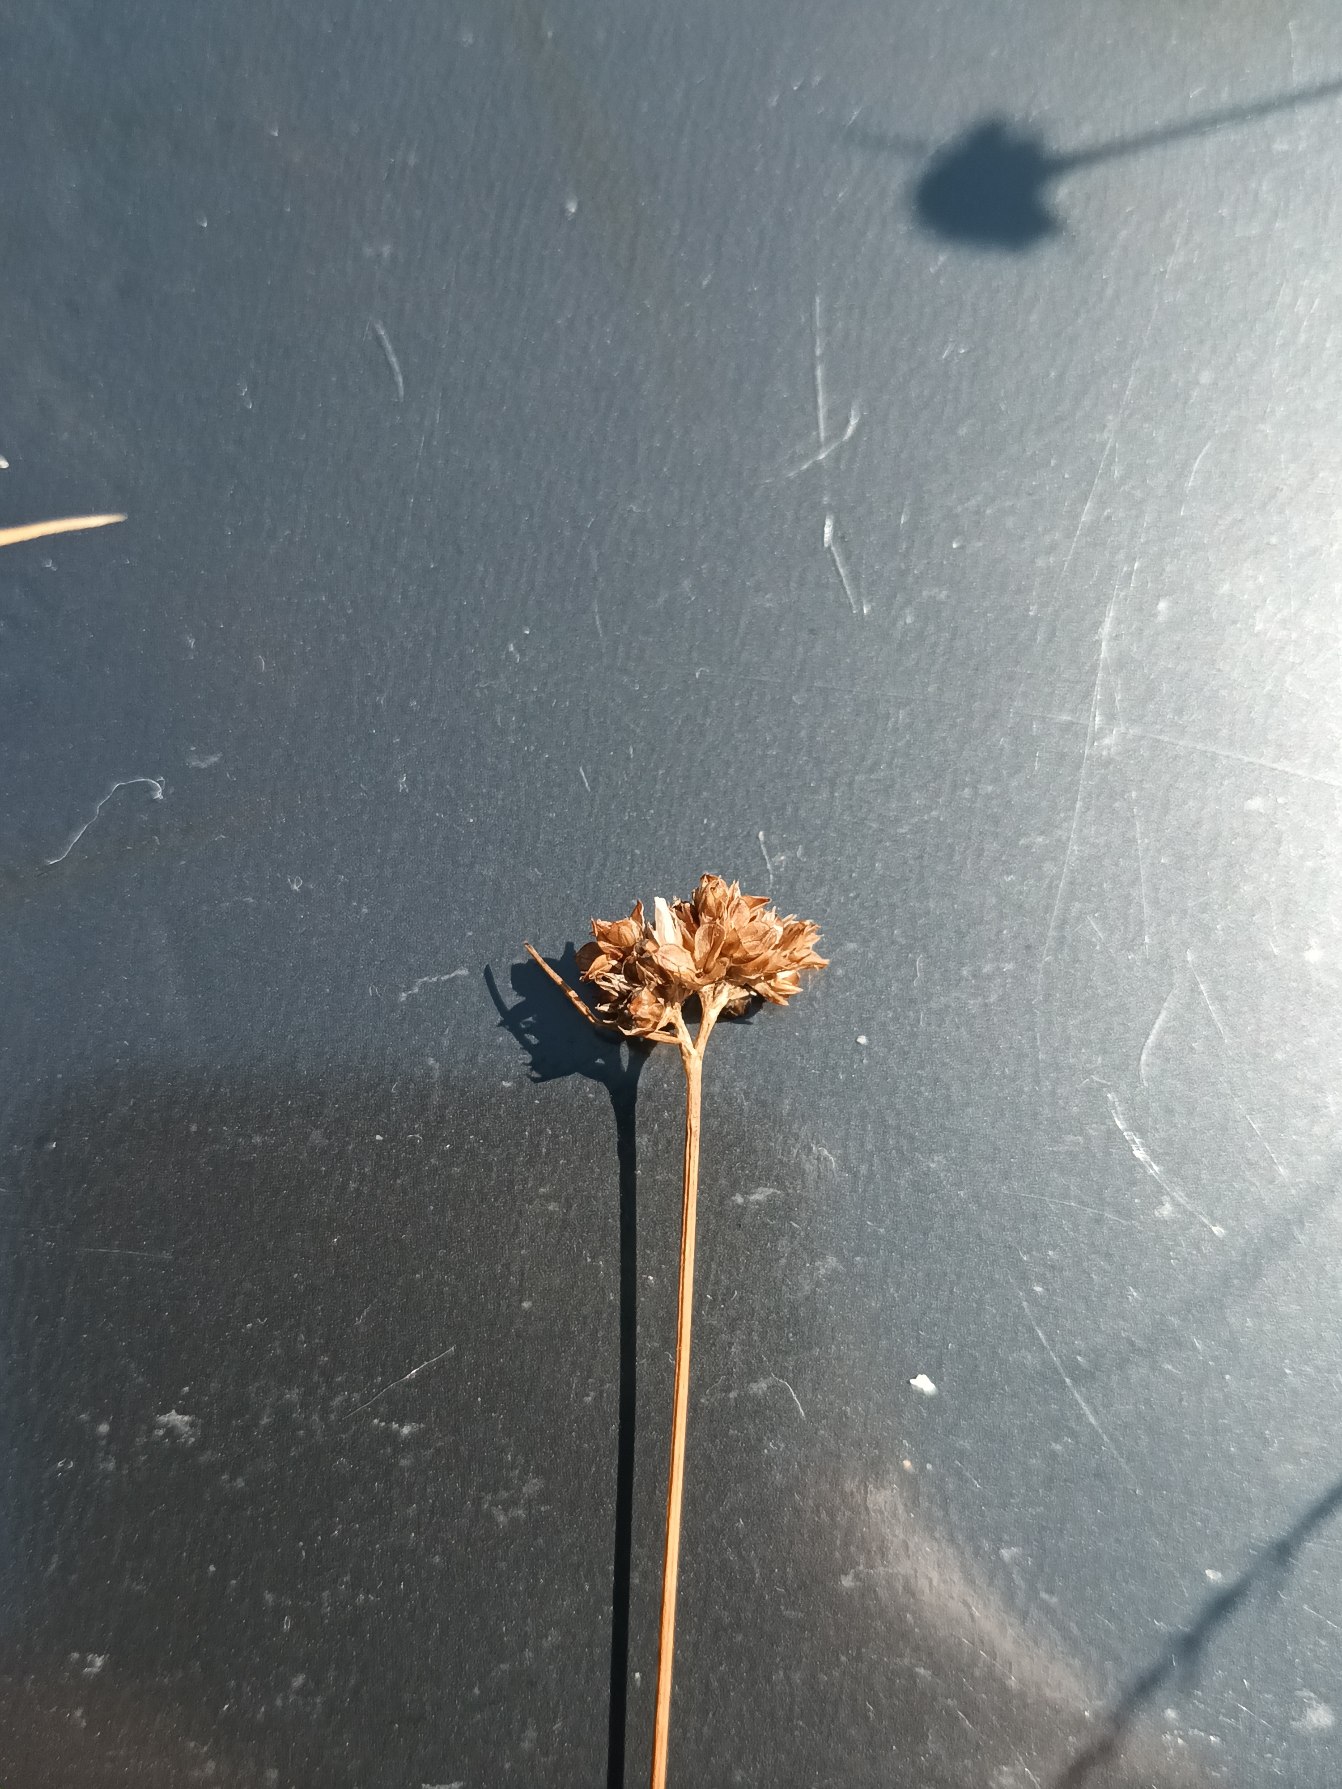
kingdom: Plantae
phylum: Tracheophyta
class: Liliopsida
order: Poales
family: Juncaceae
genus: Luzula
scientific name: Luzula congesta
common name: Hoved-frytle
